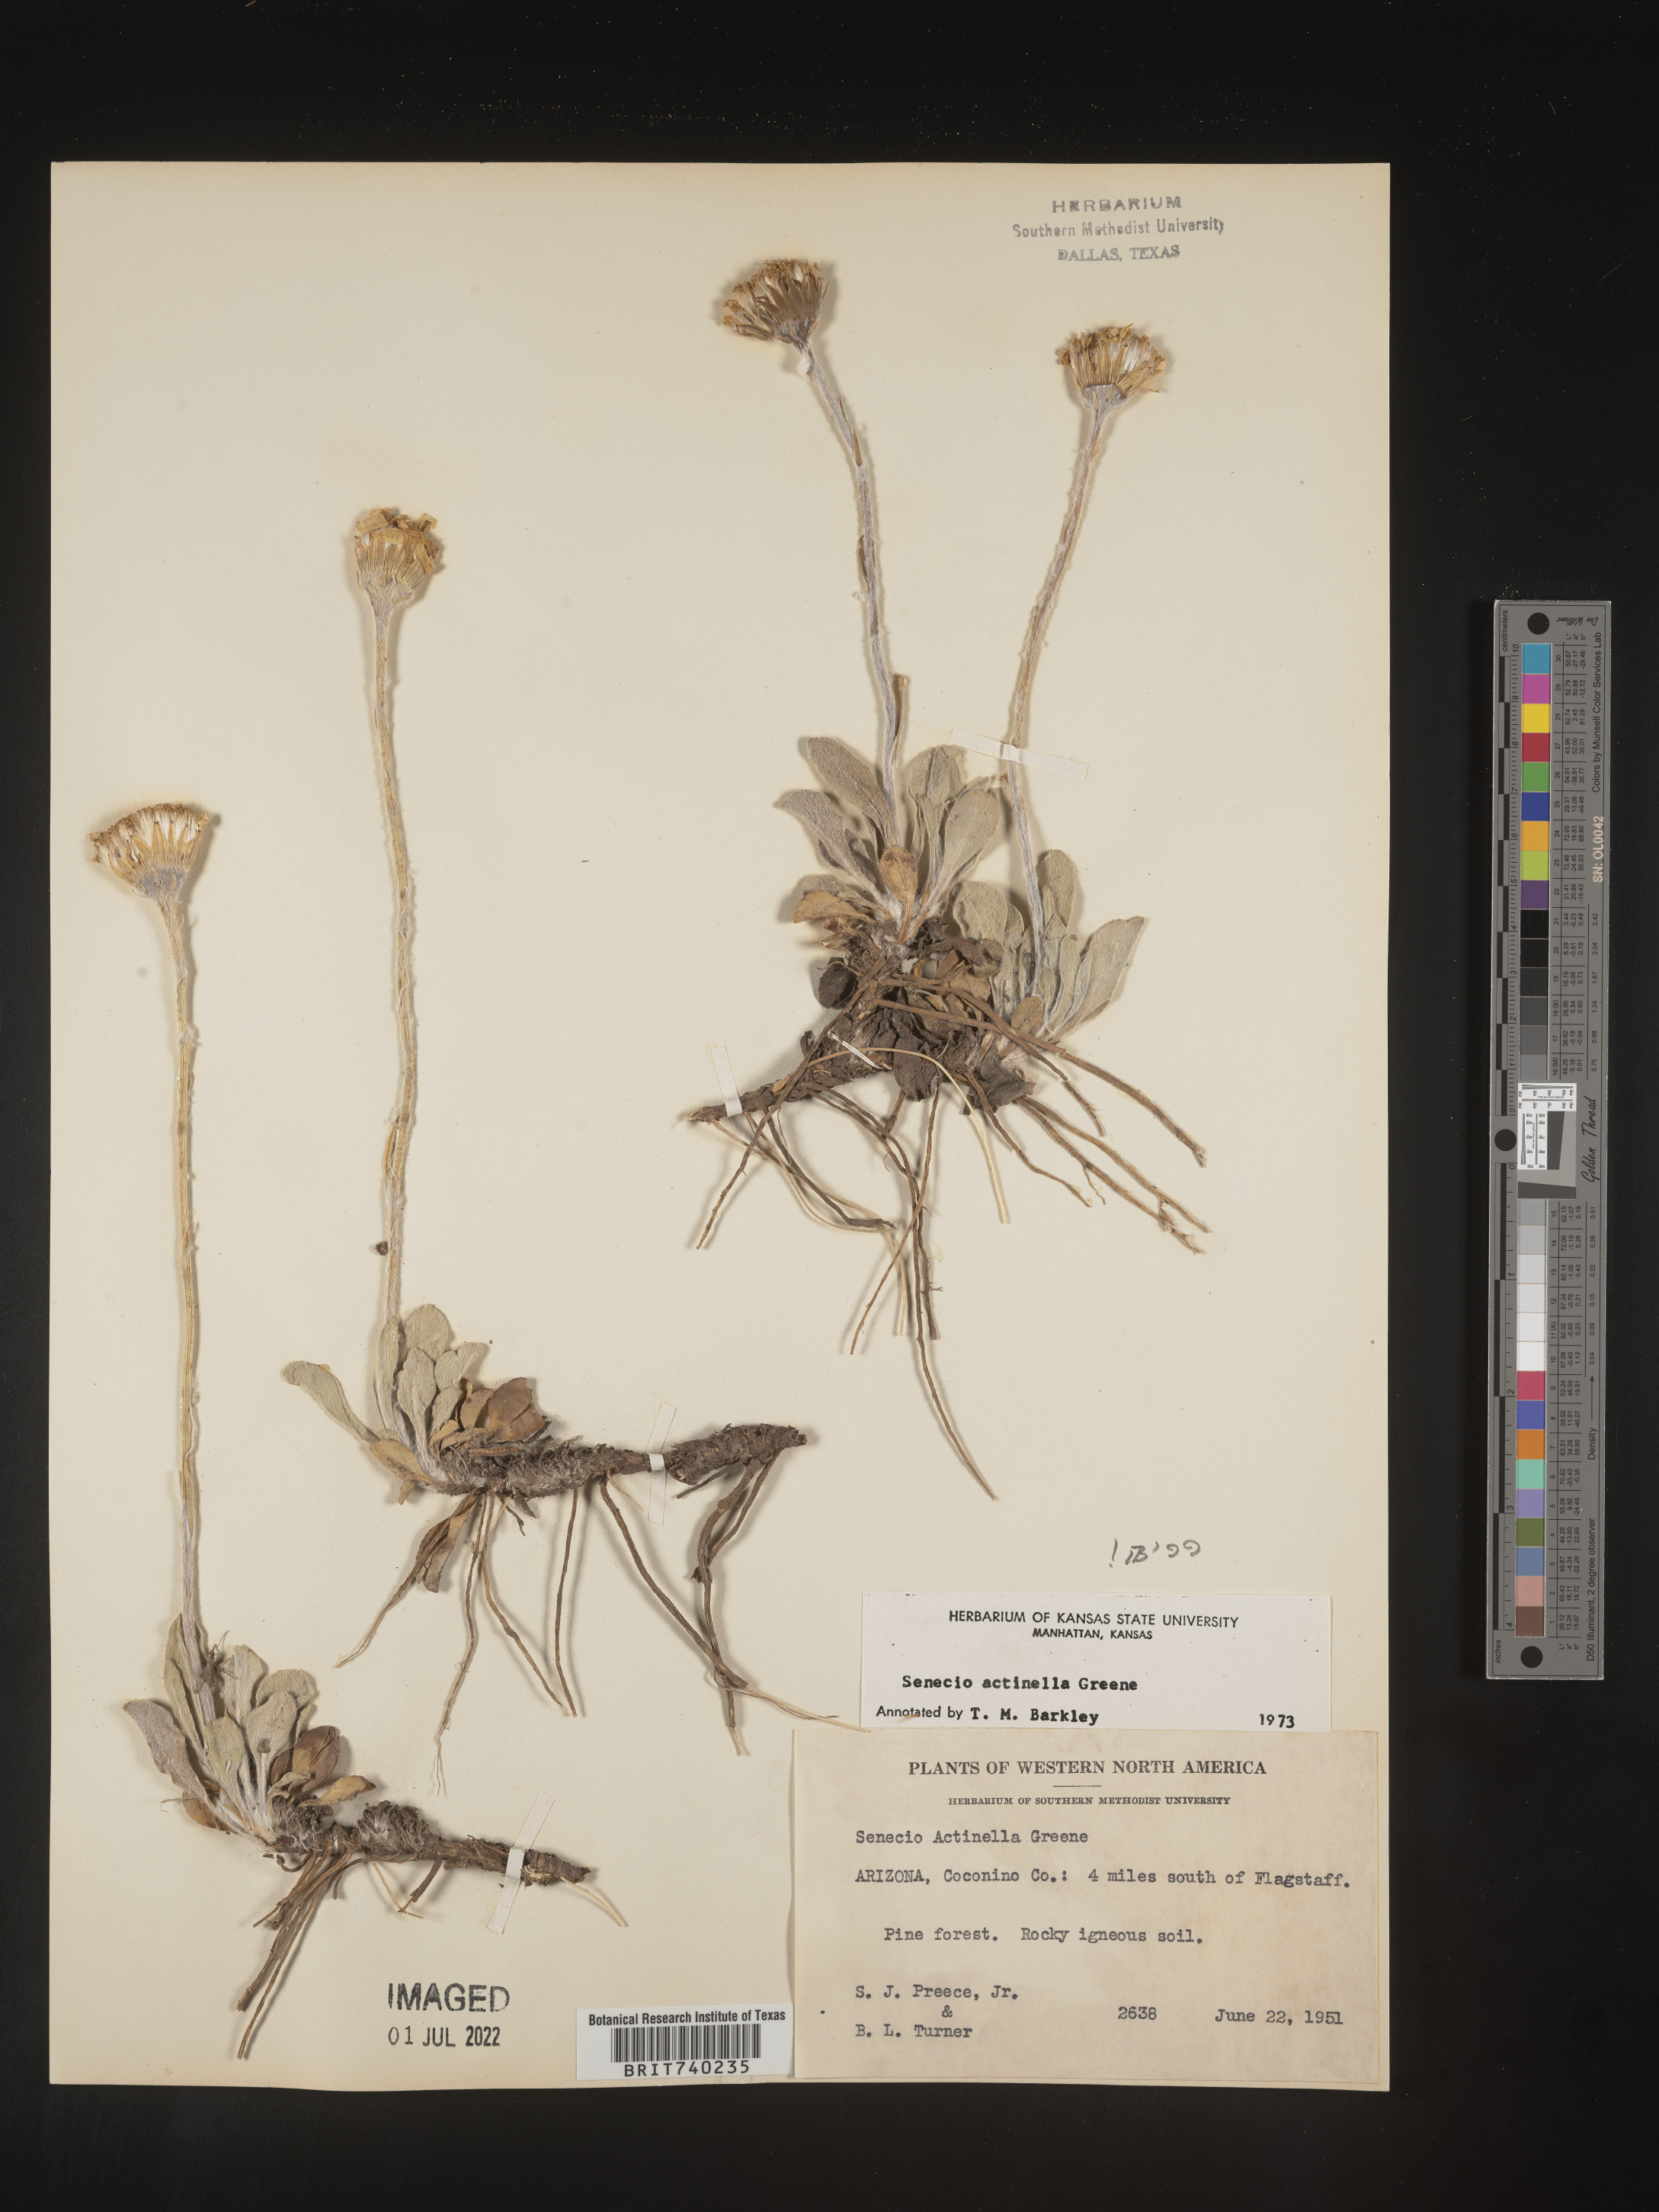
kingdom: Plantae
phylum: Tracheophyta
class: Magnoliopsida
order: Asterales
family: Asteraceae
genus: Packera
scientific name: Packera actinella
